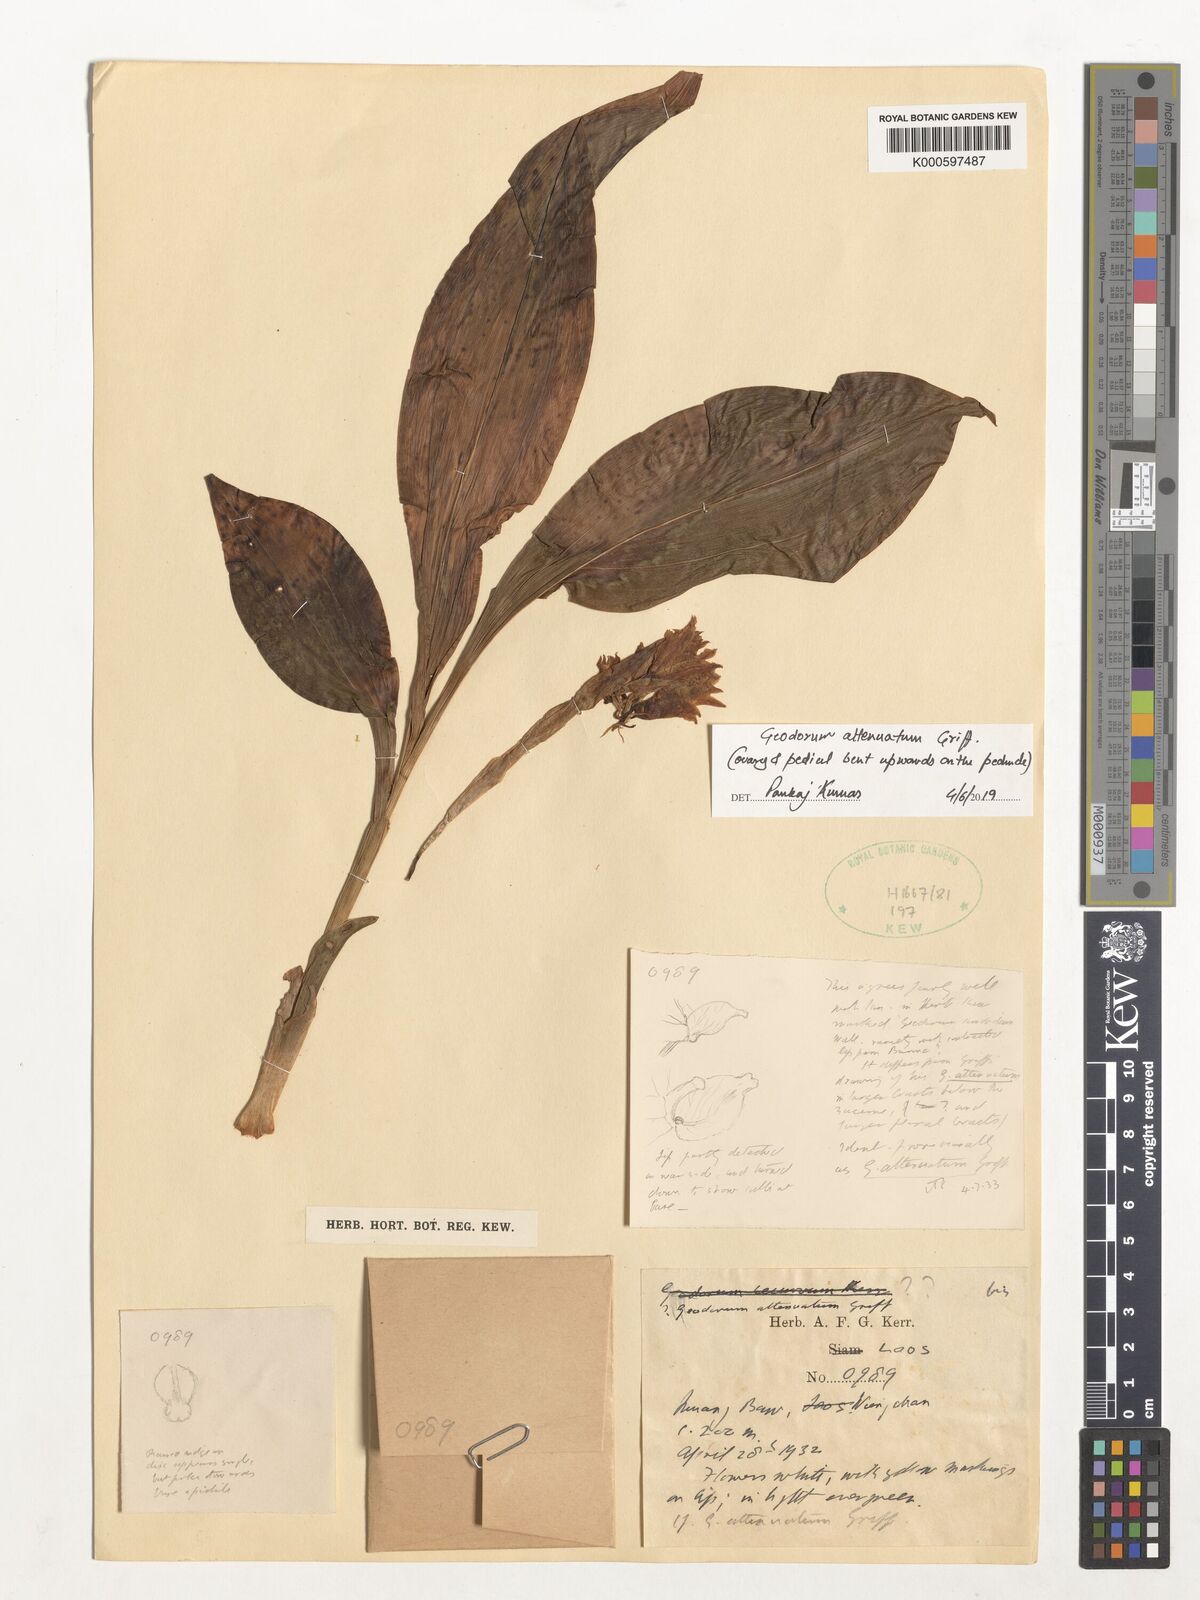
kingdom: Plantae
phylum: Tracheophyta
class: Liliopsida
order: Asparagales
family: Orchidaceae
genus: Eulophia
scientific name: Eulophia attenuata
